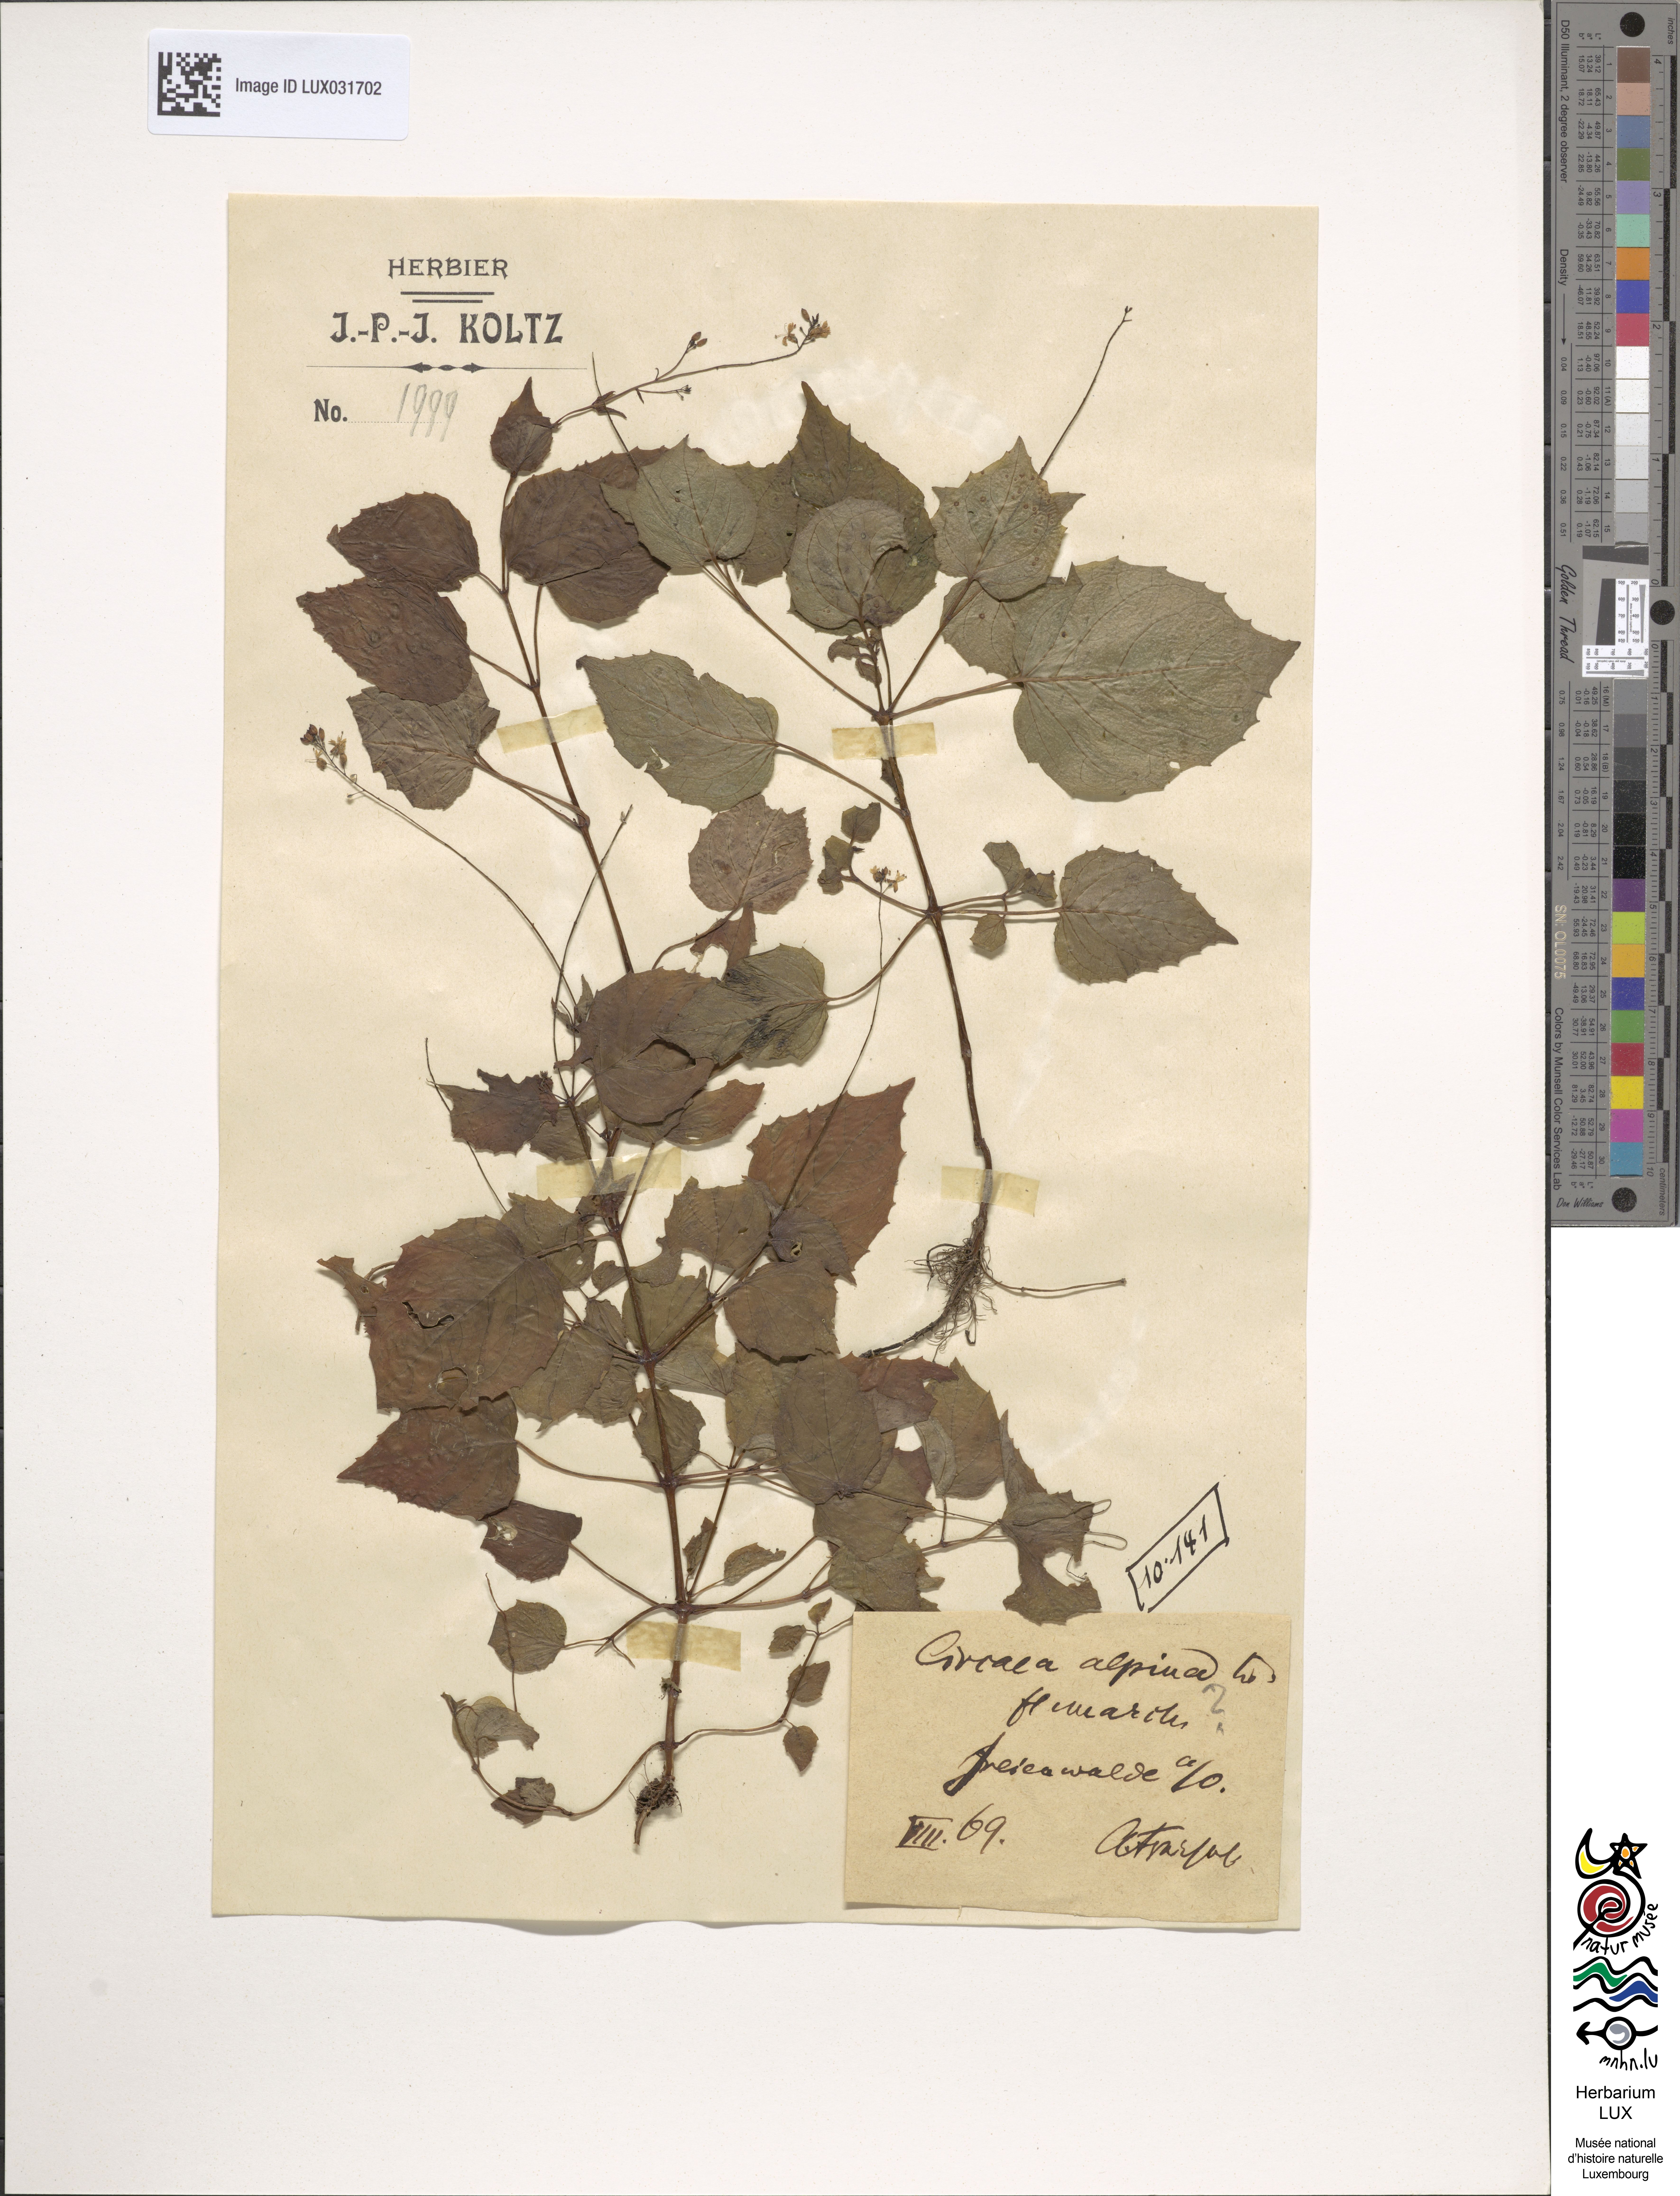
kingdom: Plantae
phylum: Tracheophyta
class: Magnoliopsida
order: Myrtales
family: Onagraceae
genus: Circaea
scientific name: Circaea alpina
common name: Alpine enchanter's-nightshade
